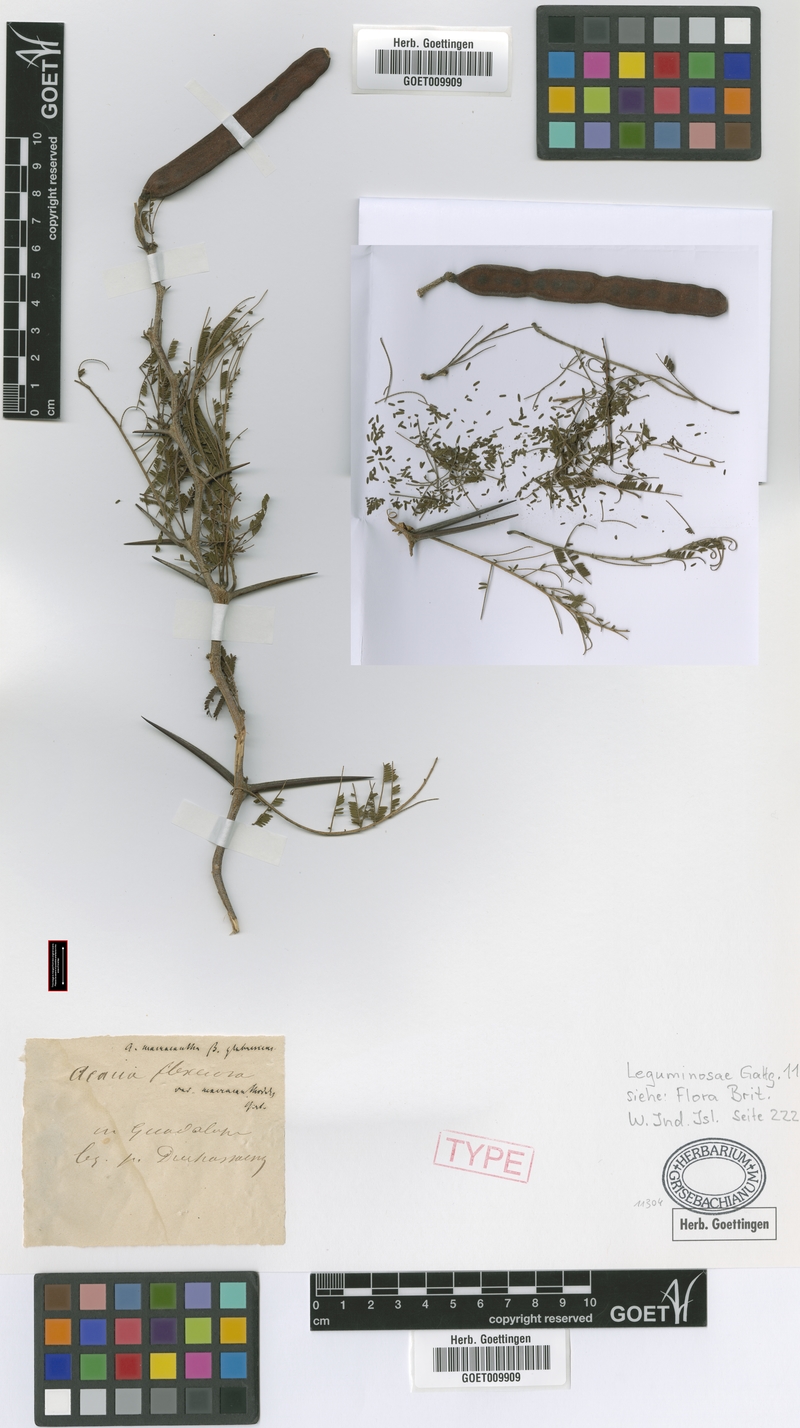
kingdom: Plantae
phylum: Tracheophyta
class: Magnoliopsida
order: Fabales
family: Fabaceae
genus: Vachellia
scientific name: Vachellia macracantha
